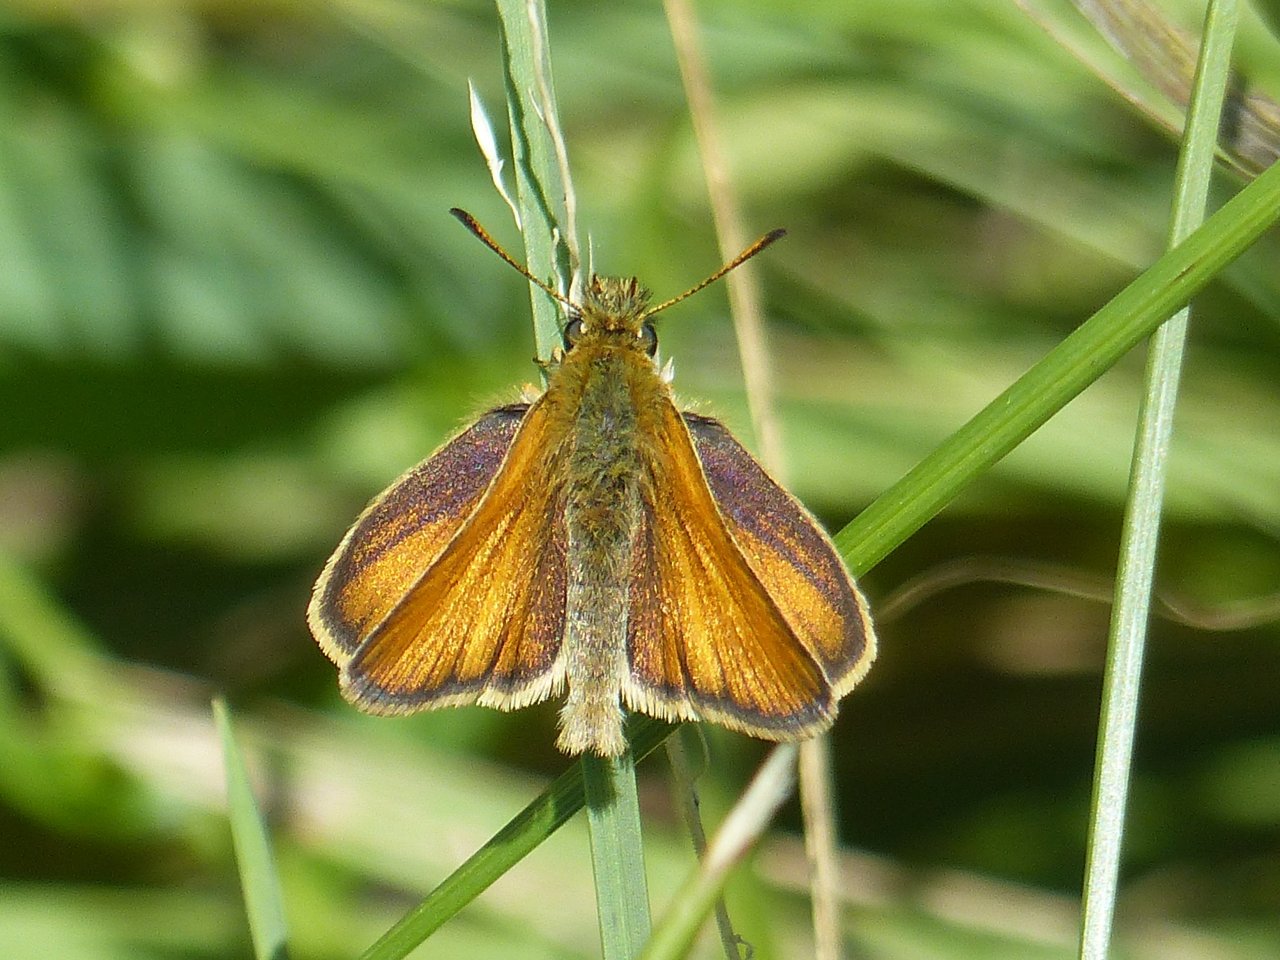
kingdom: Animalia
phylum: Arthropoda
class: Insecta
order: Lepidoptera
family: Hesperiidae
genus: Thymelicus
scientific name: Thymelicus lineola
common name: European Skipper
